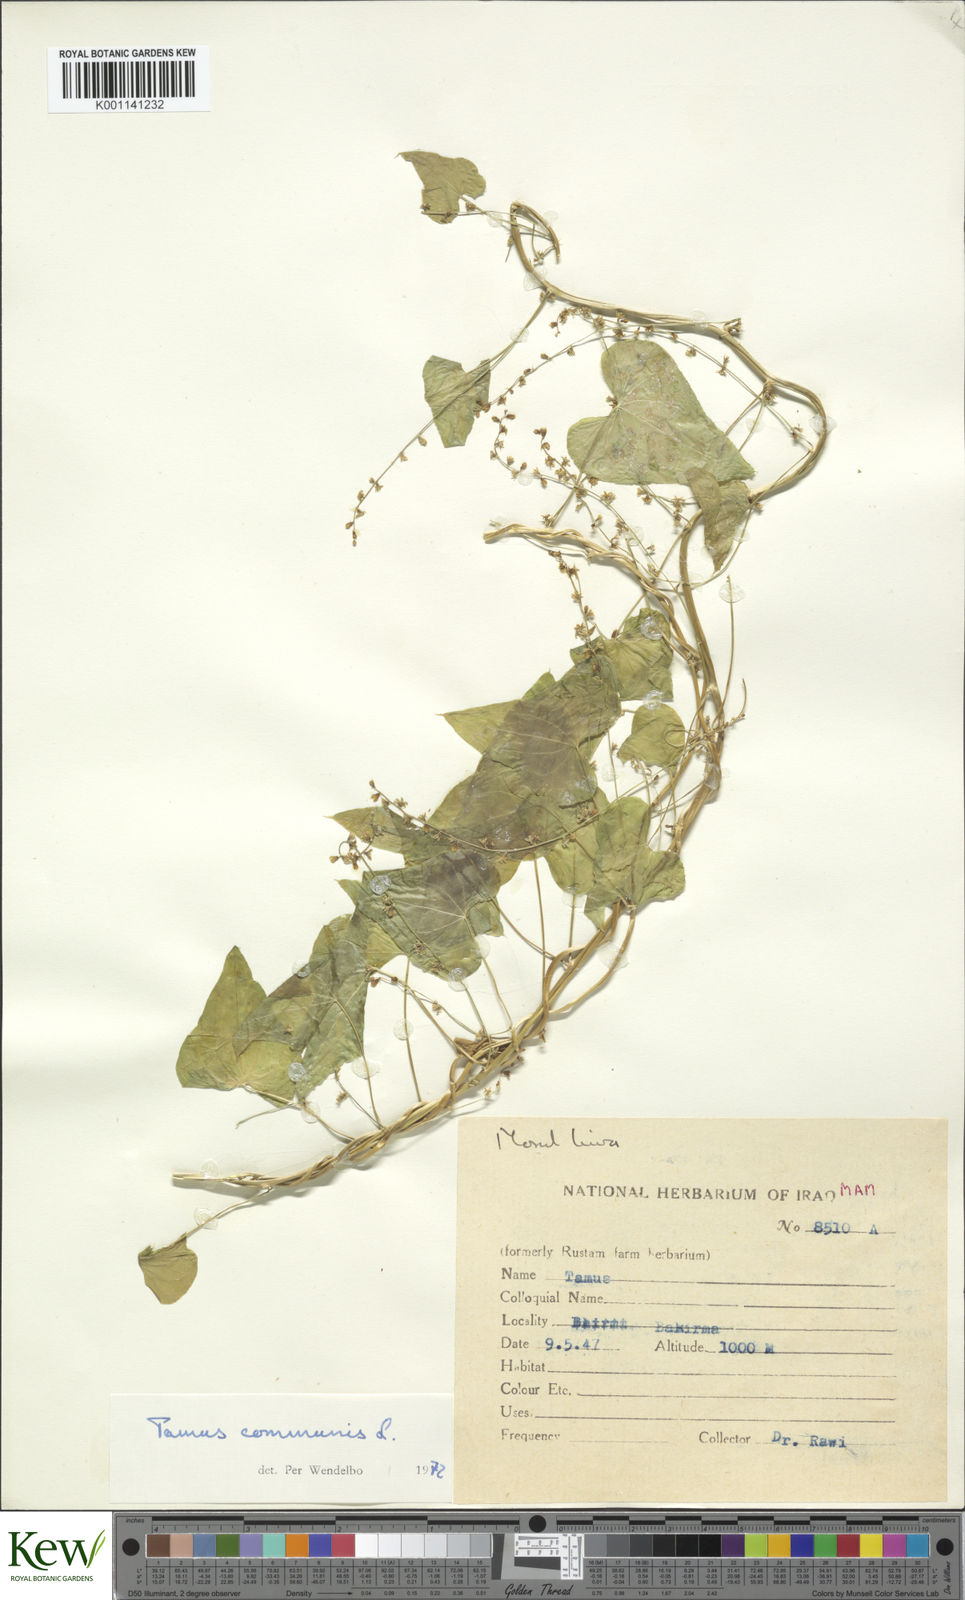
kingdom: Plantae
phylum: Tracheophyta
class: Liliopsida
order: Dioscoreales
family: Dioscoreaceae
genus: Dioscorea
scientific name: Dioscorea communis
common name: Black-bindweed
